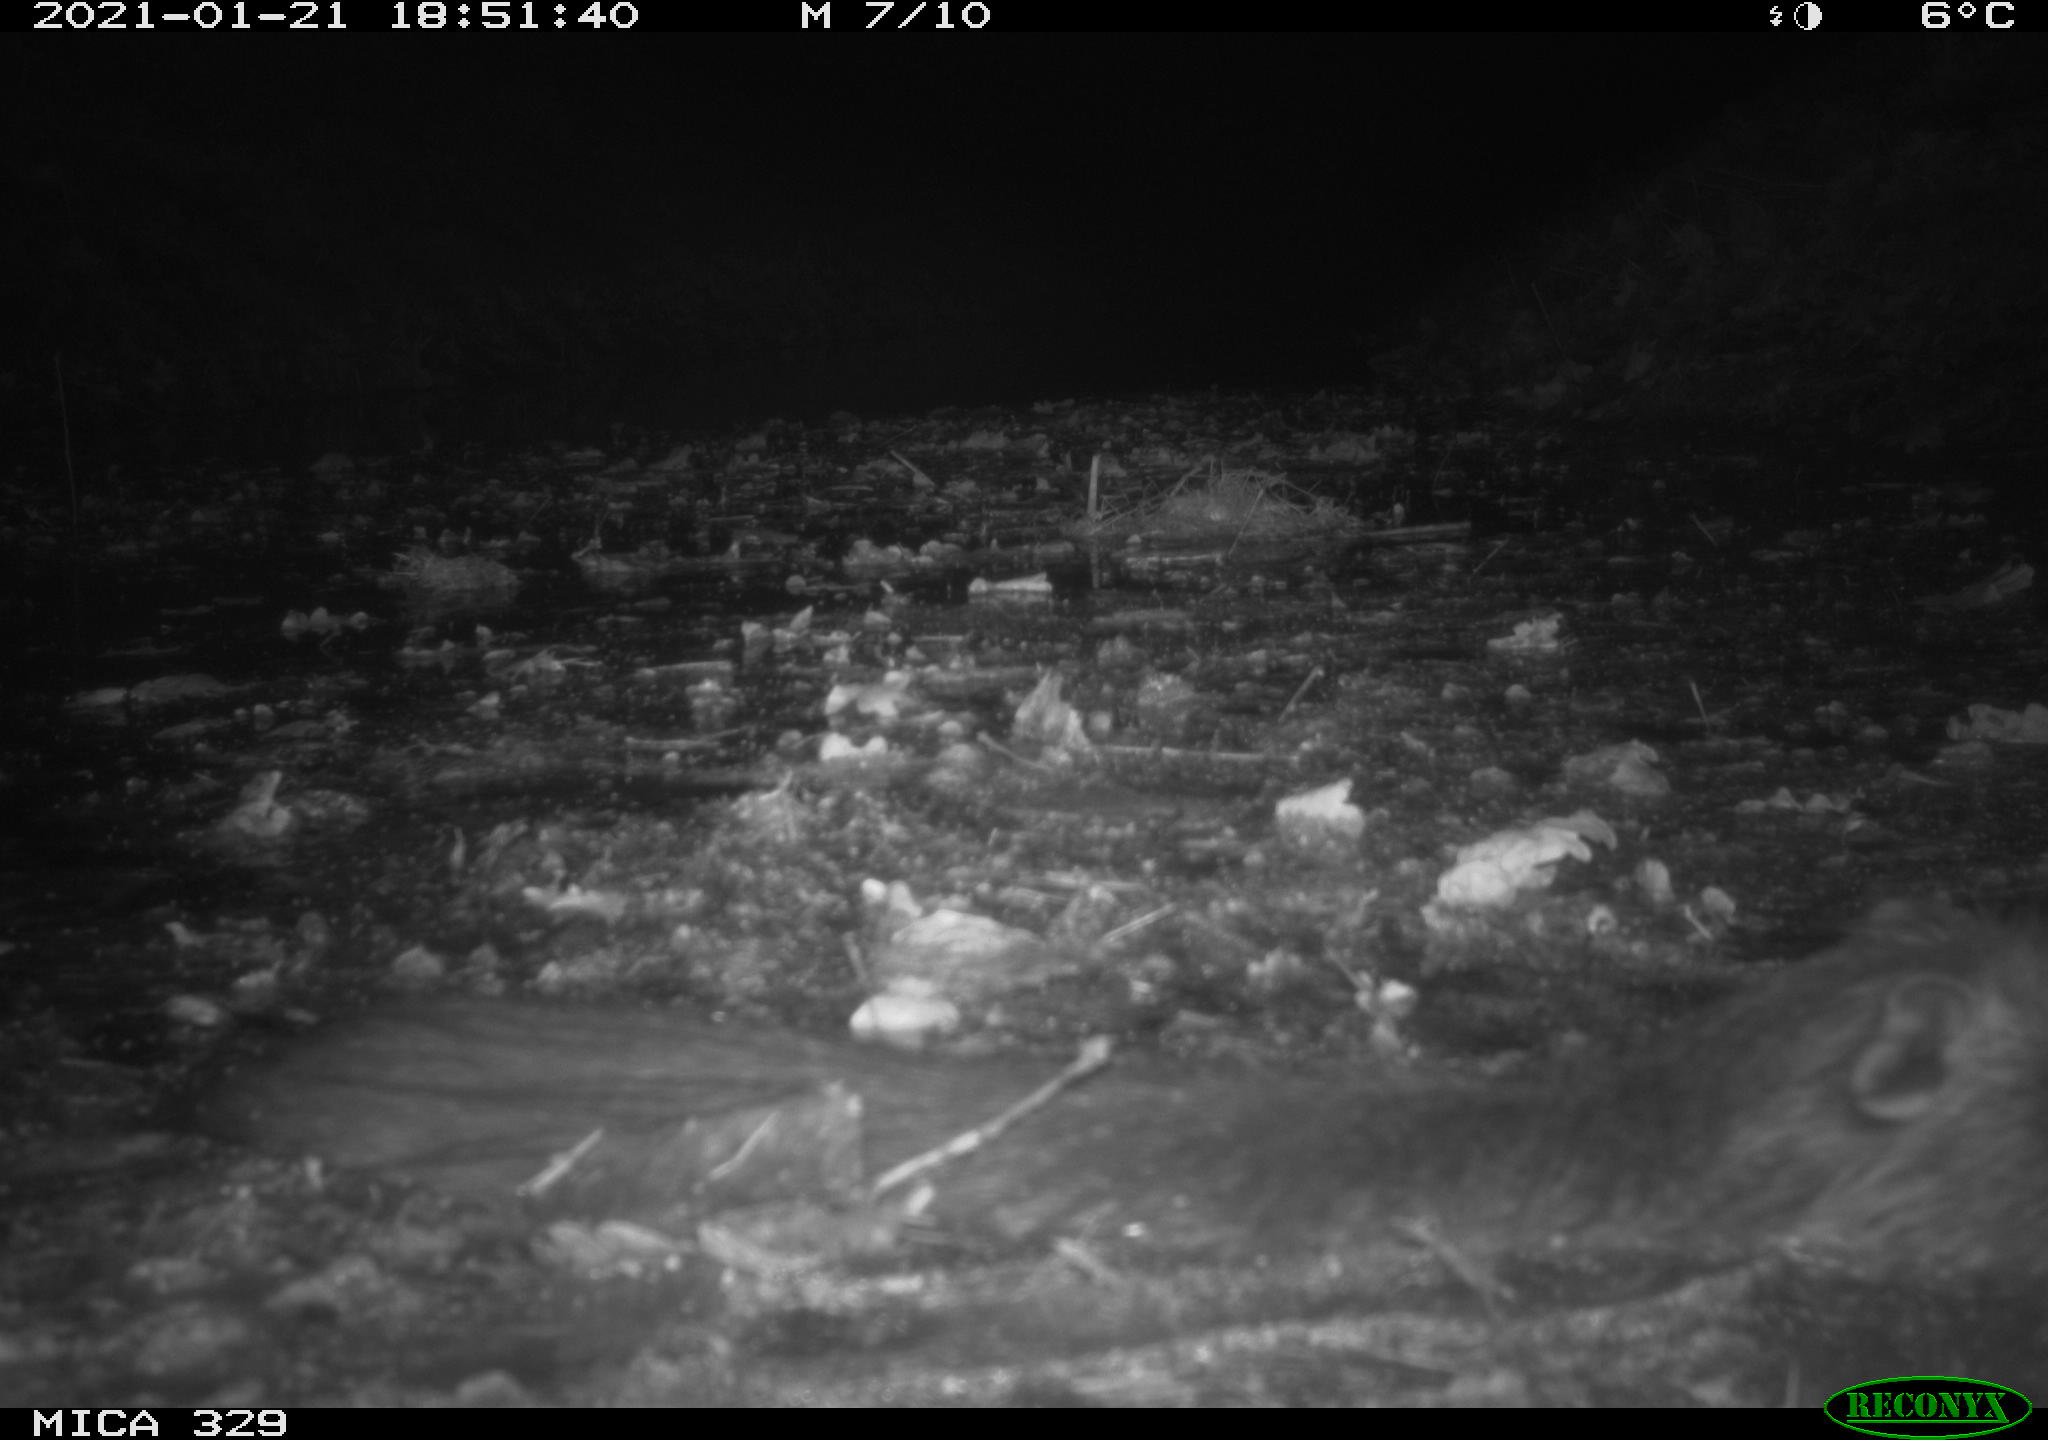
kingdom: Animalia
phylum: Chordata
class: Mammalia
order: Rodentia
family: Myocastoridae
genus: Myocastor
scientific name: Myocastor coypus
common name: Coypu
